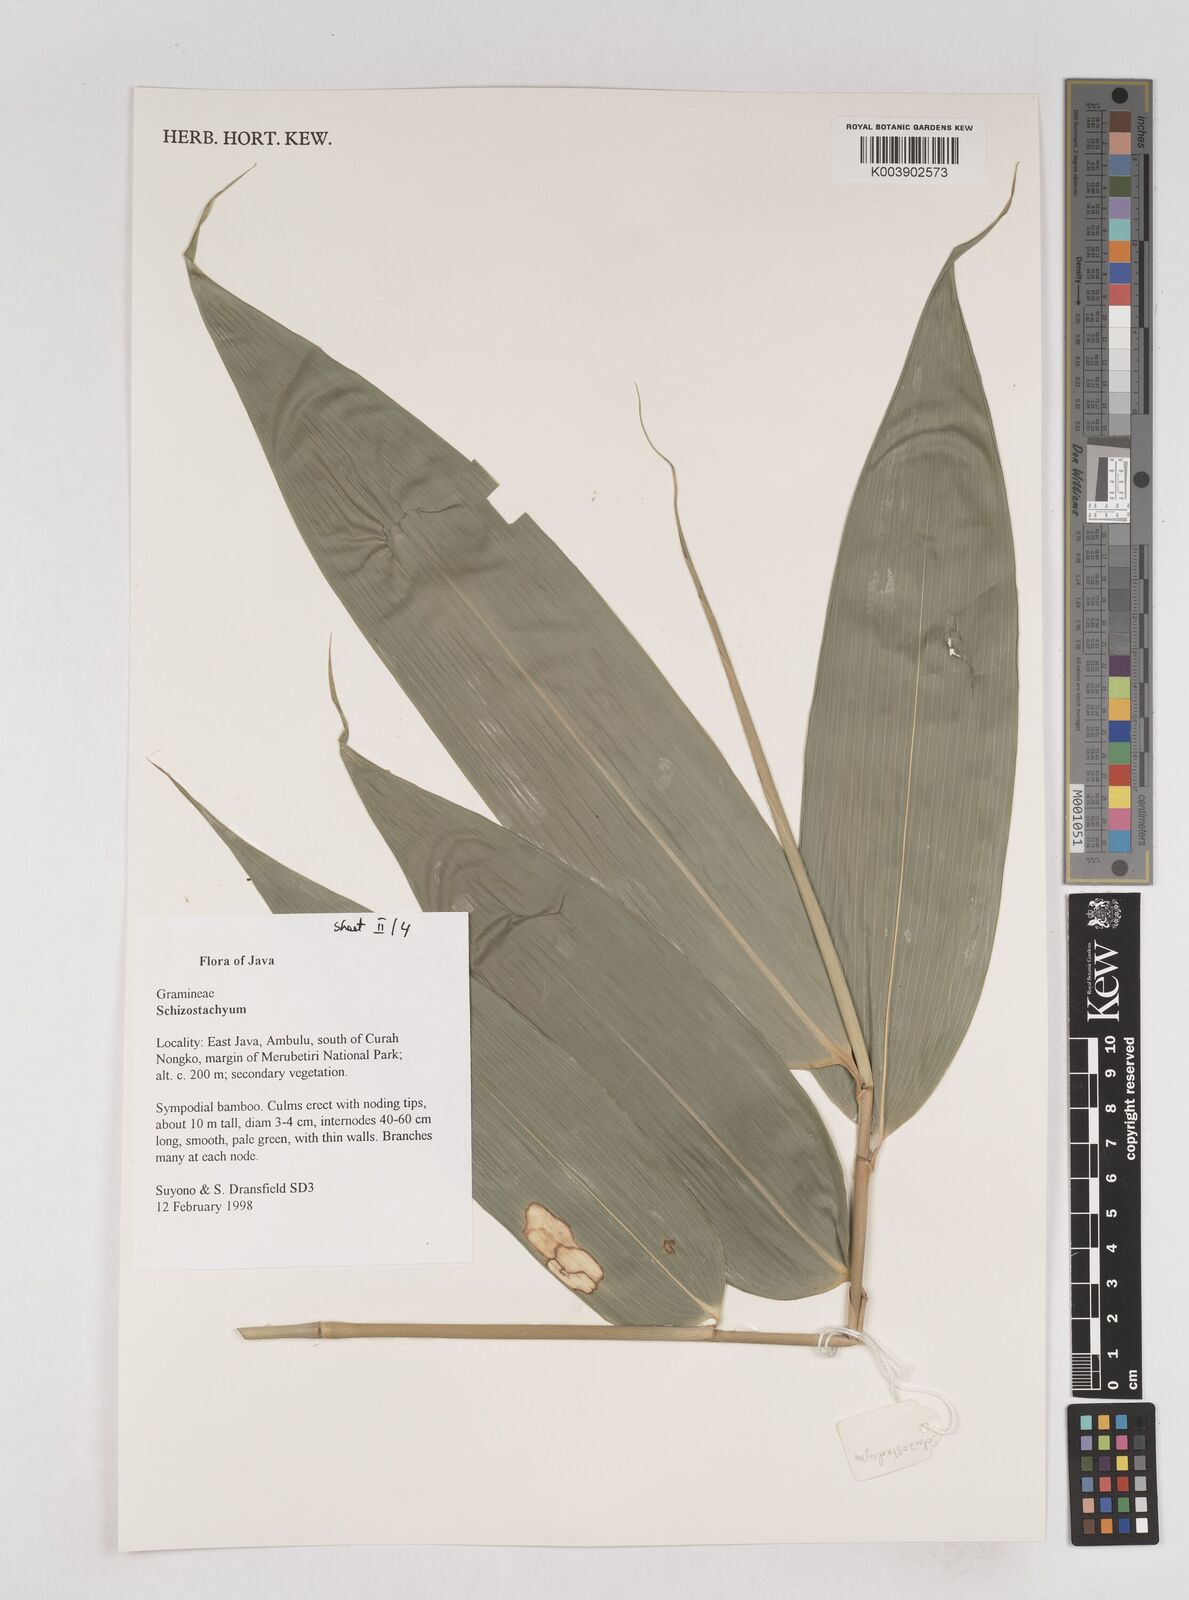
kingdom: Plantae
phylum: Tracheophyta
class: Liliopsida
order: Poales
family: Poaceae
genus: Schizostachyum
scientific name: Schizostachyum
